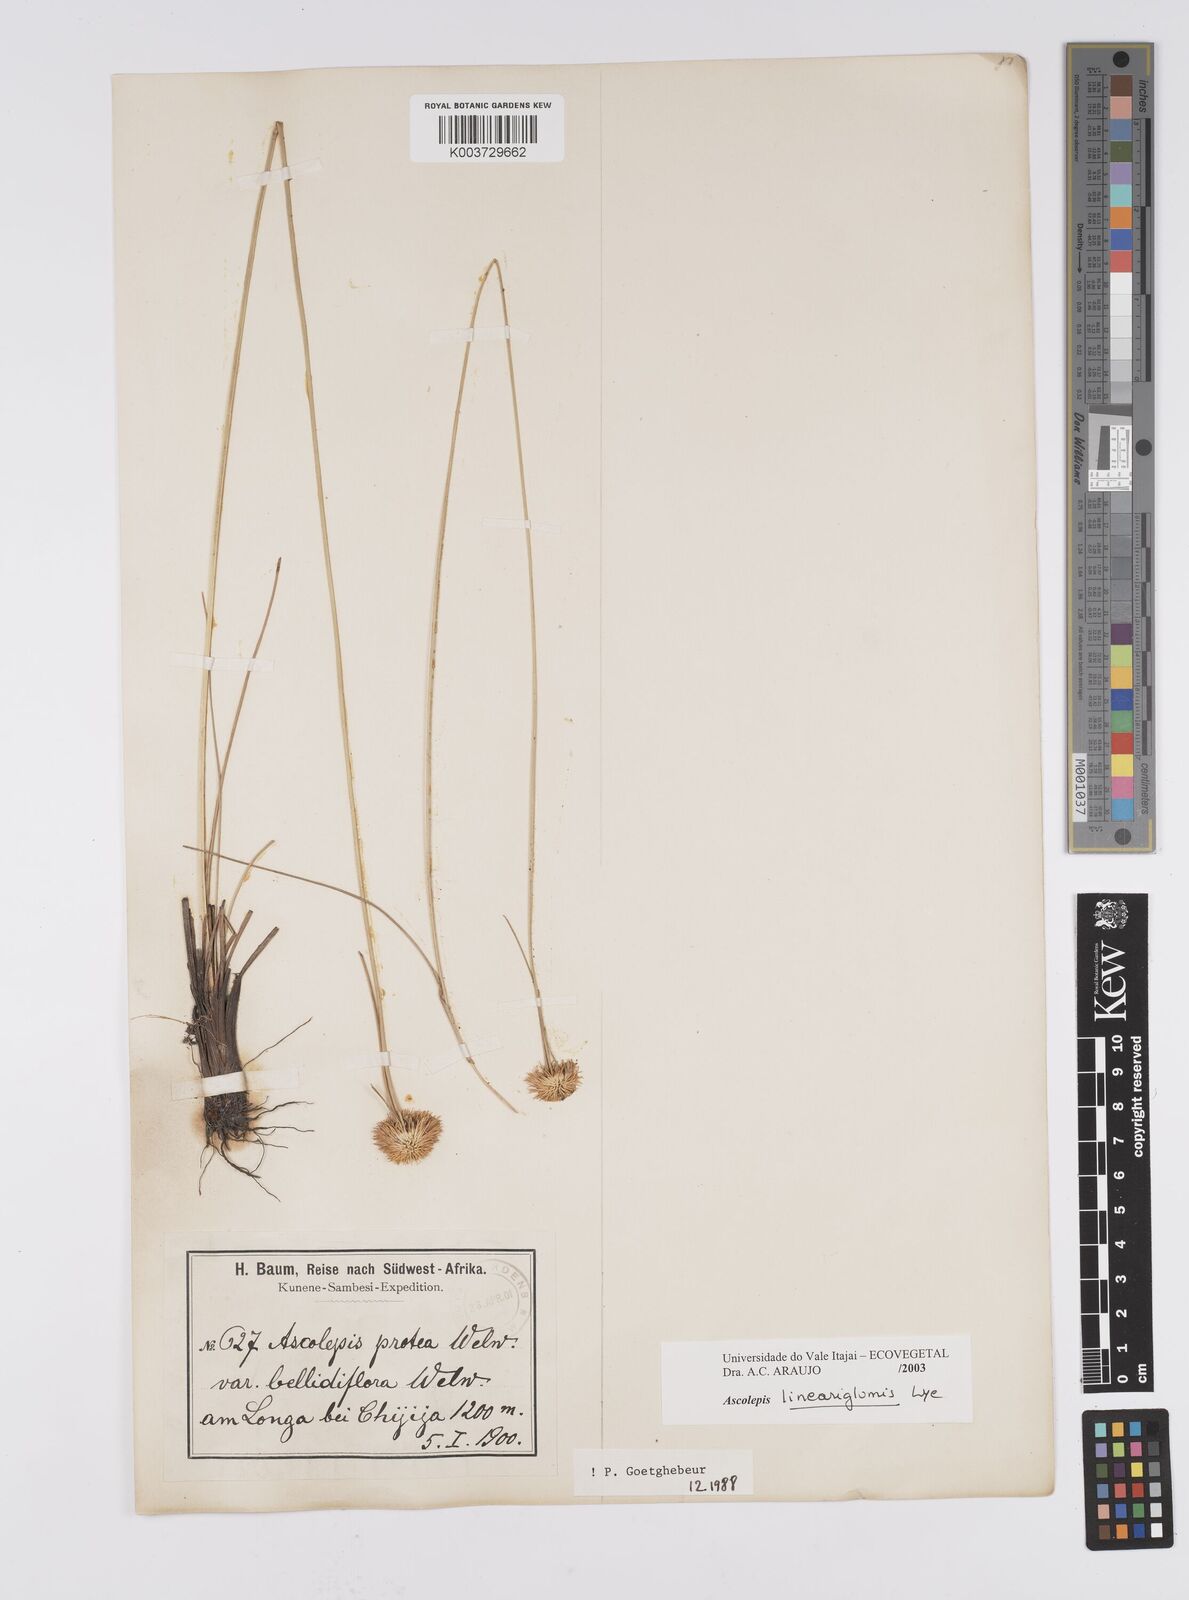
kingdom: Plantae
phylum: Tracheophyta
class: Liliopsida
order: Poales
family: Cyperaceae
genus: Cyperus
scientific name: Cyperus
